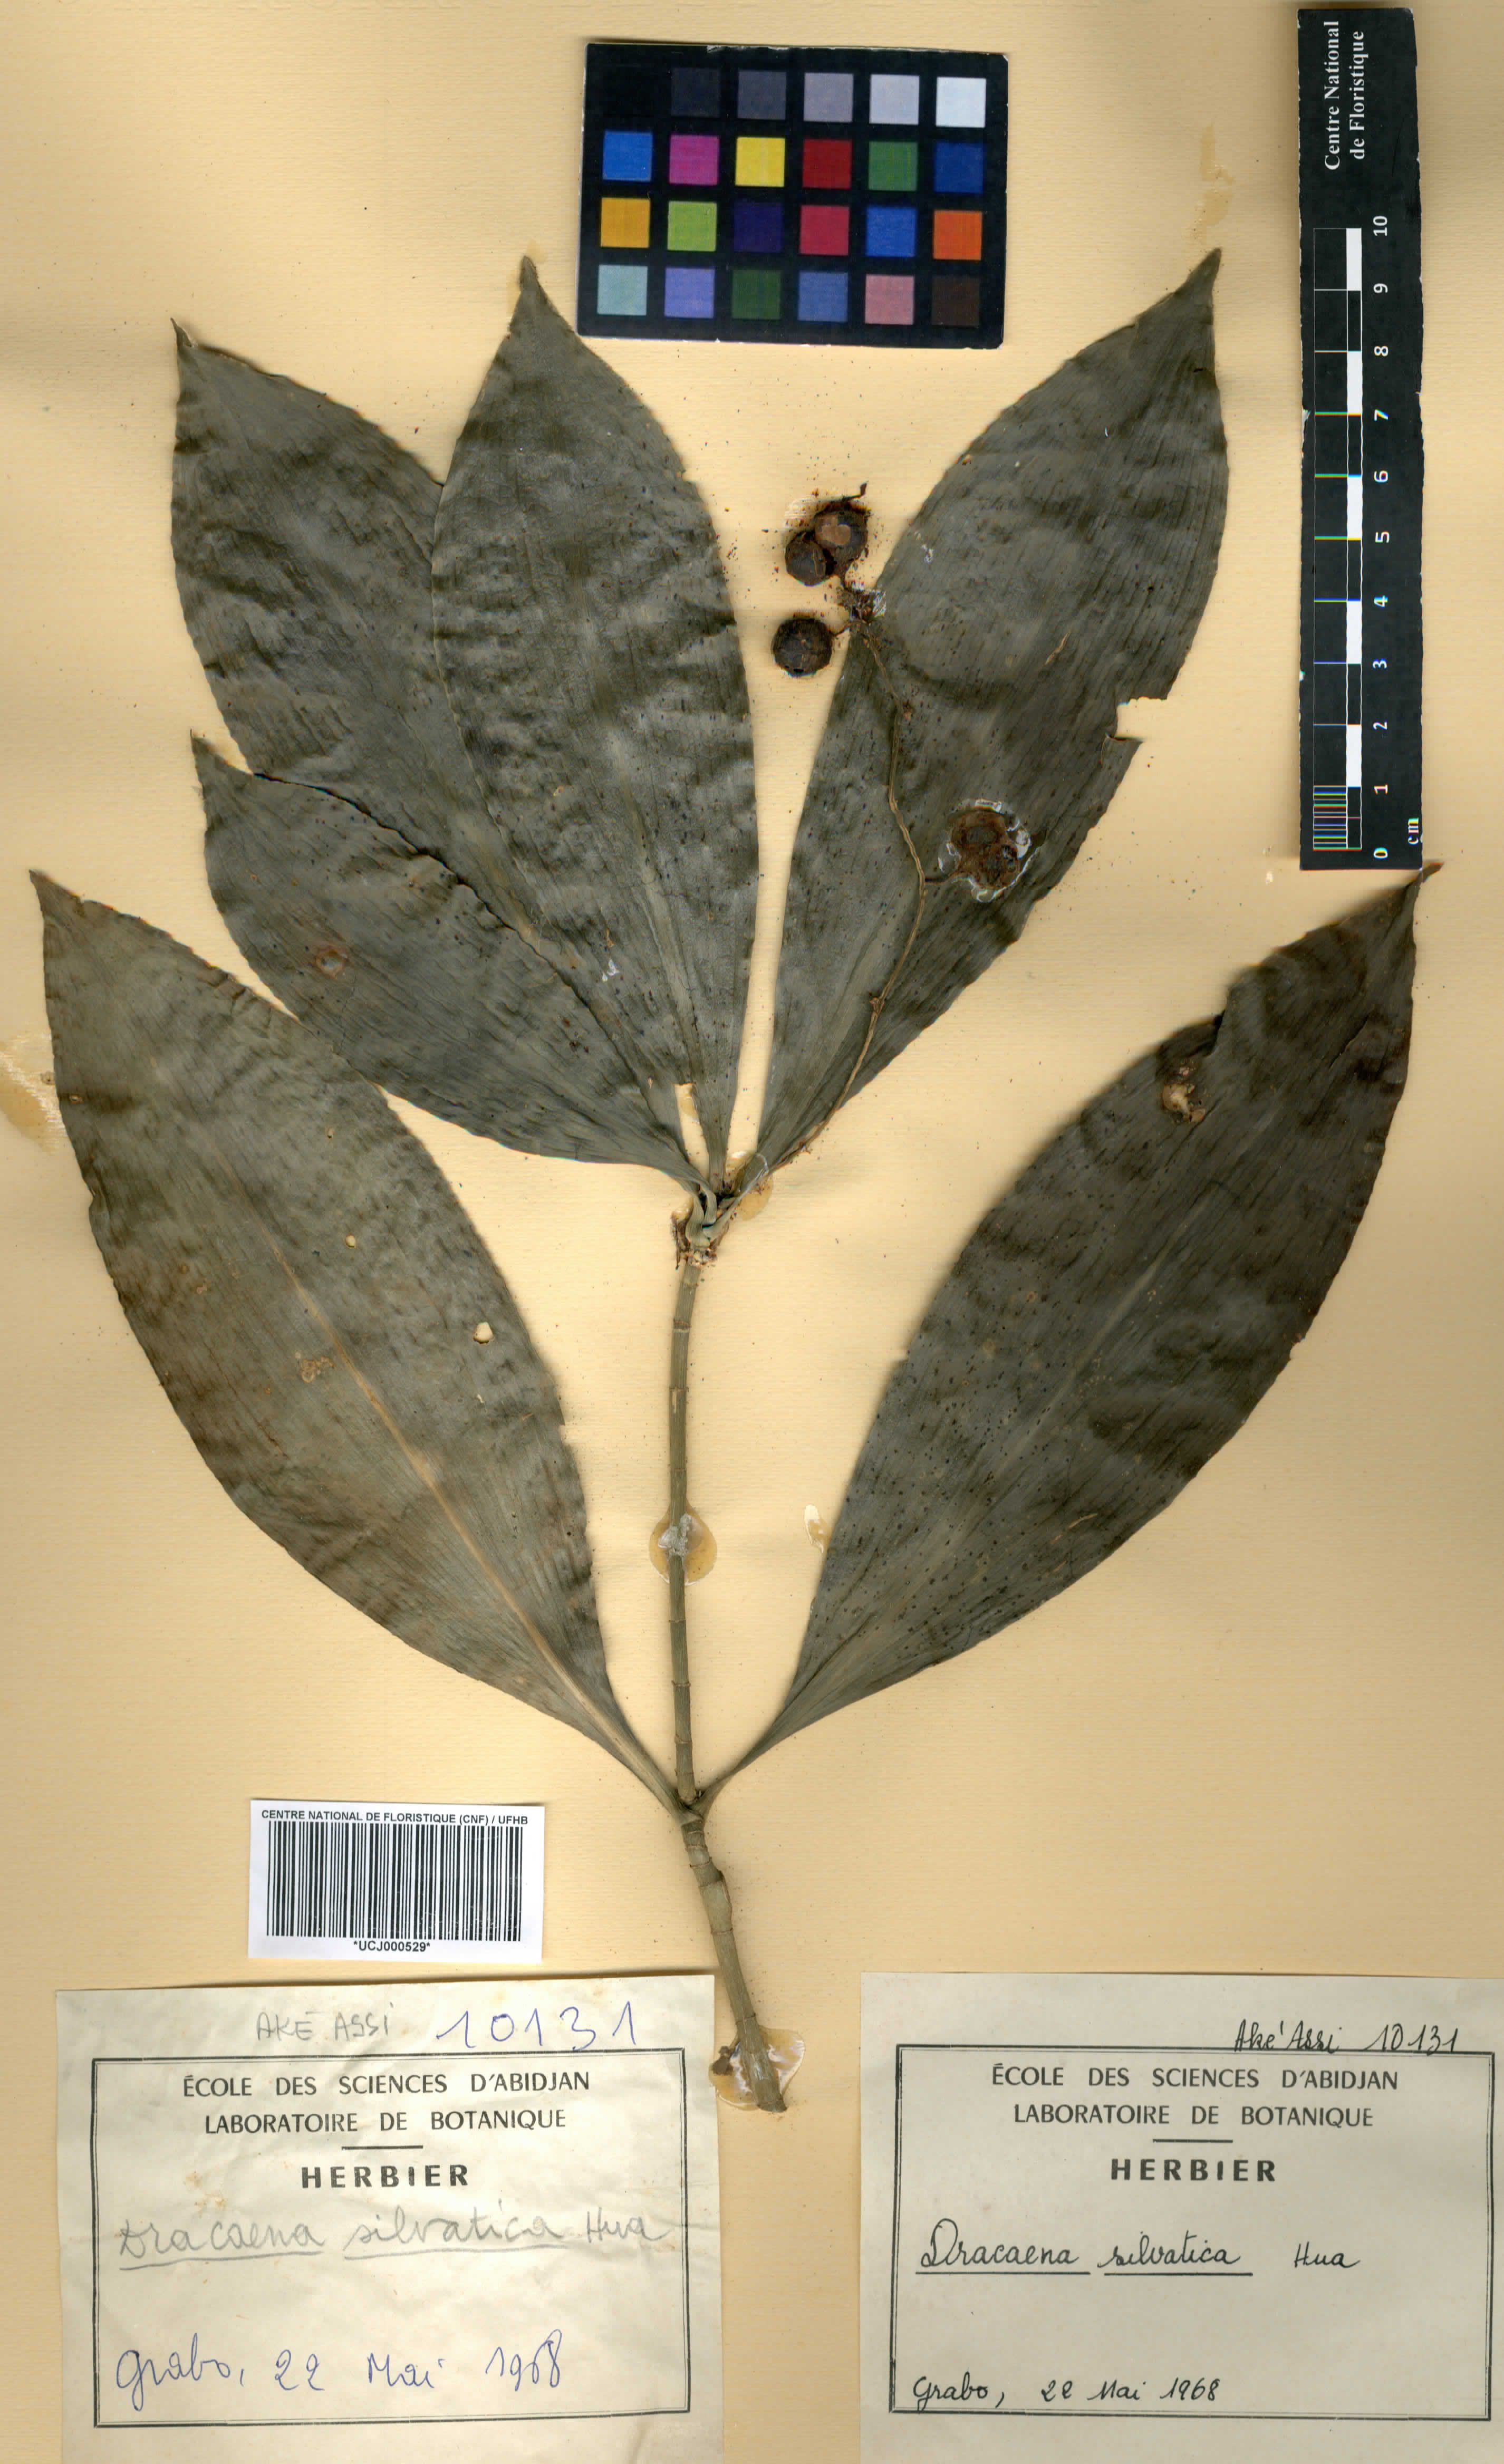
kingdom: Plantae
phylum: Tracheophyta
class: Liliopsida
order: Asparagales
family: Asparagaceae
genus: Dracaena
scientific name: Dracaena camerooniana
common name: Dragon tree
